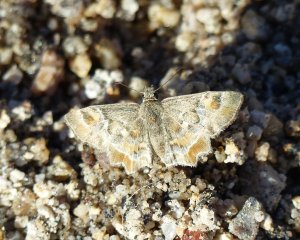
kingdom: Animalia
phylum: Arthropoda
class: Insecta
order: Lepidoptera
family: Hesperiidae
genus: Systasea
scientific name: Systasea zampa
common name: Arizona Powdered-Skipper
